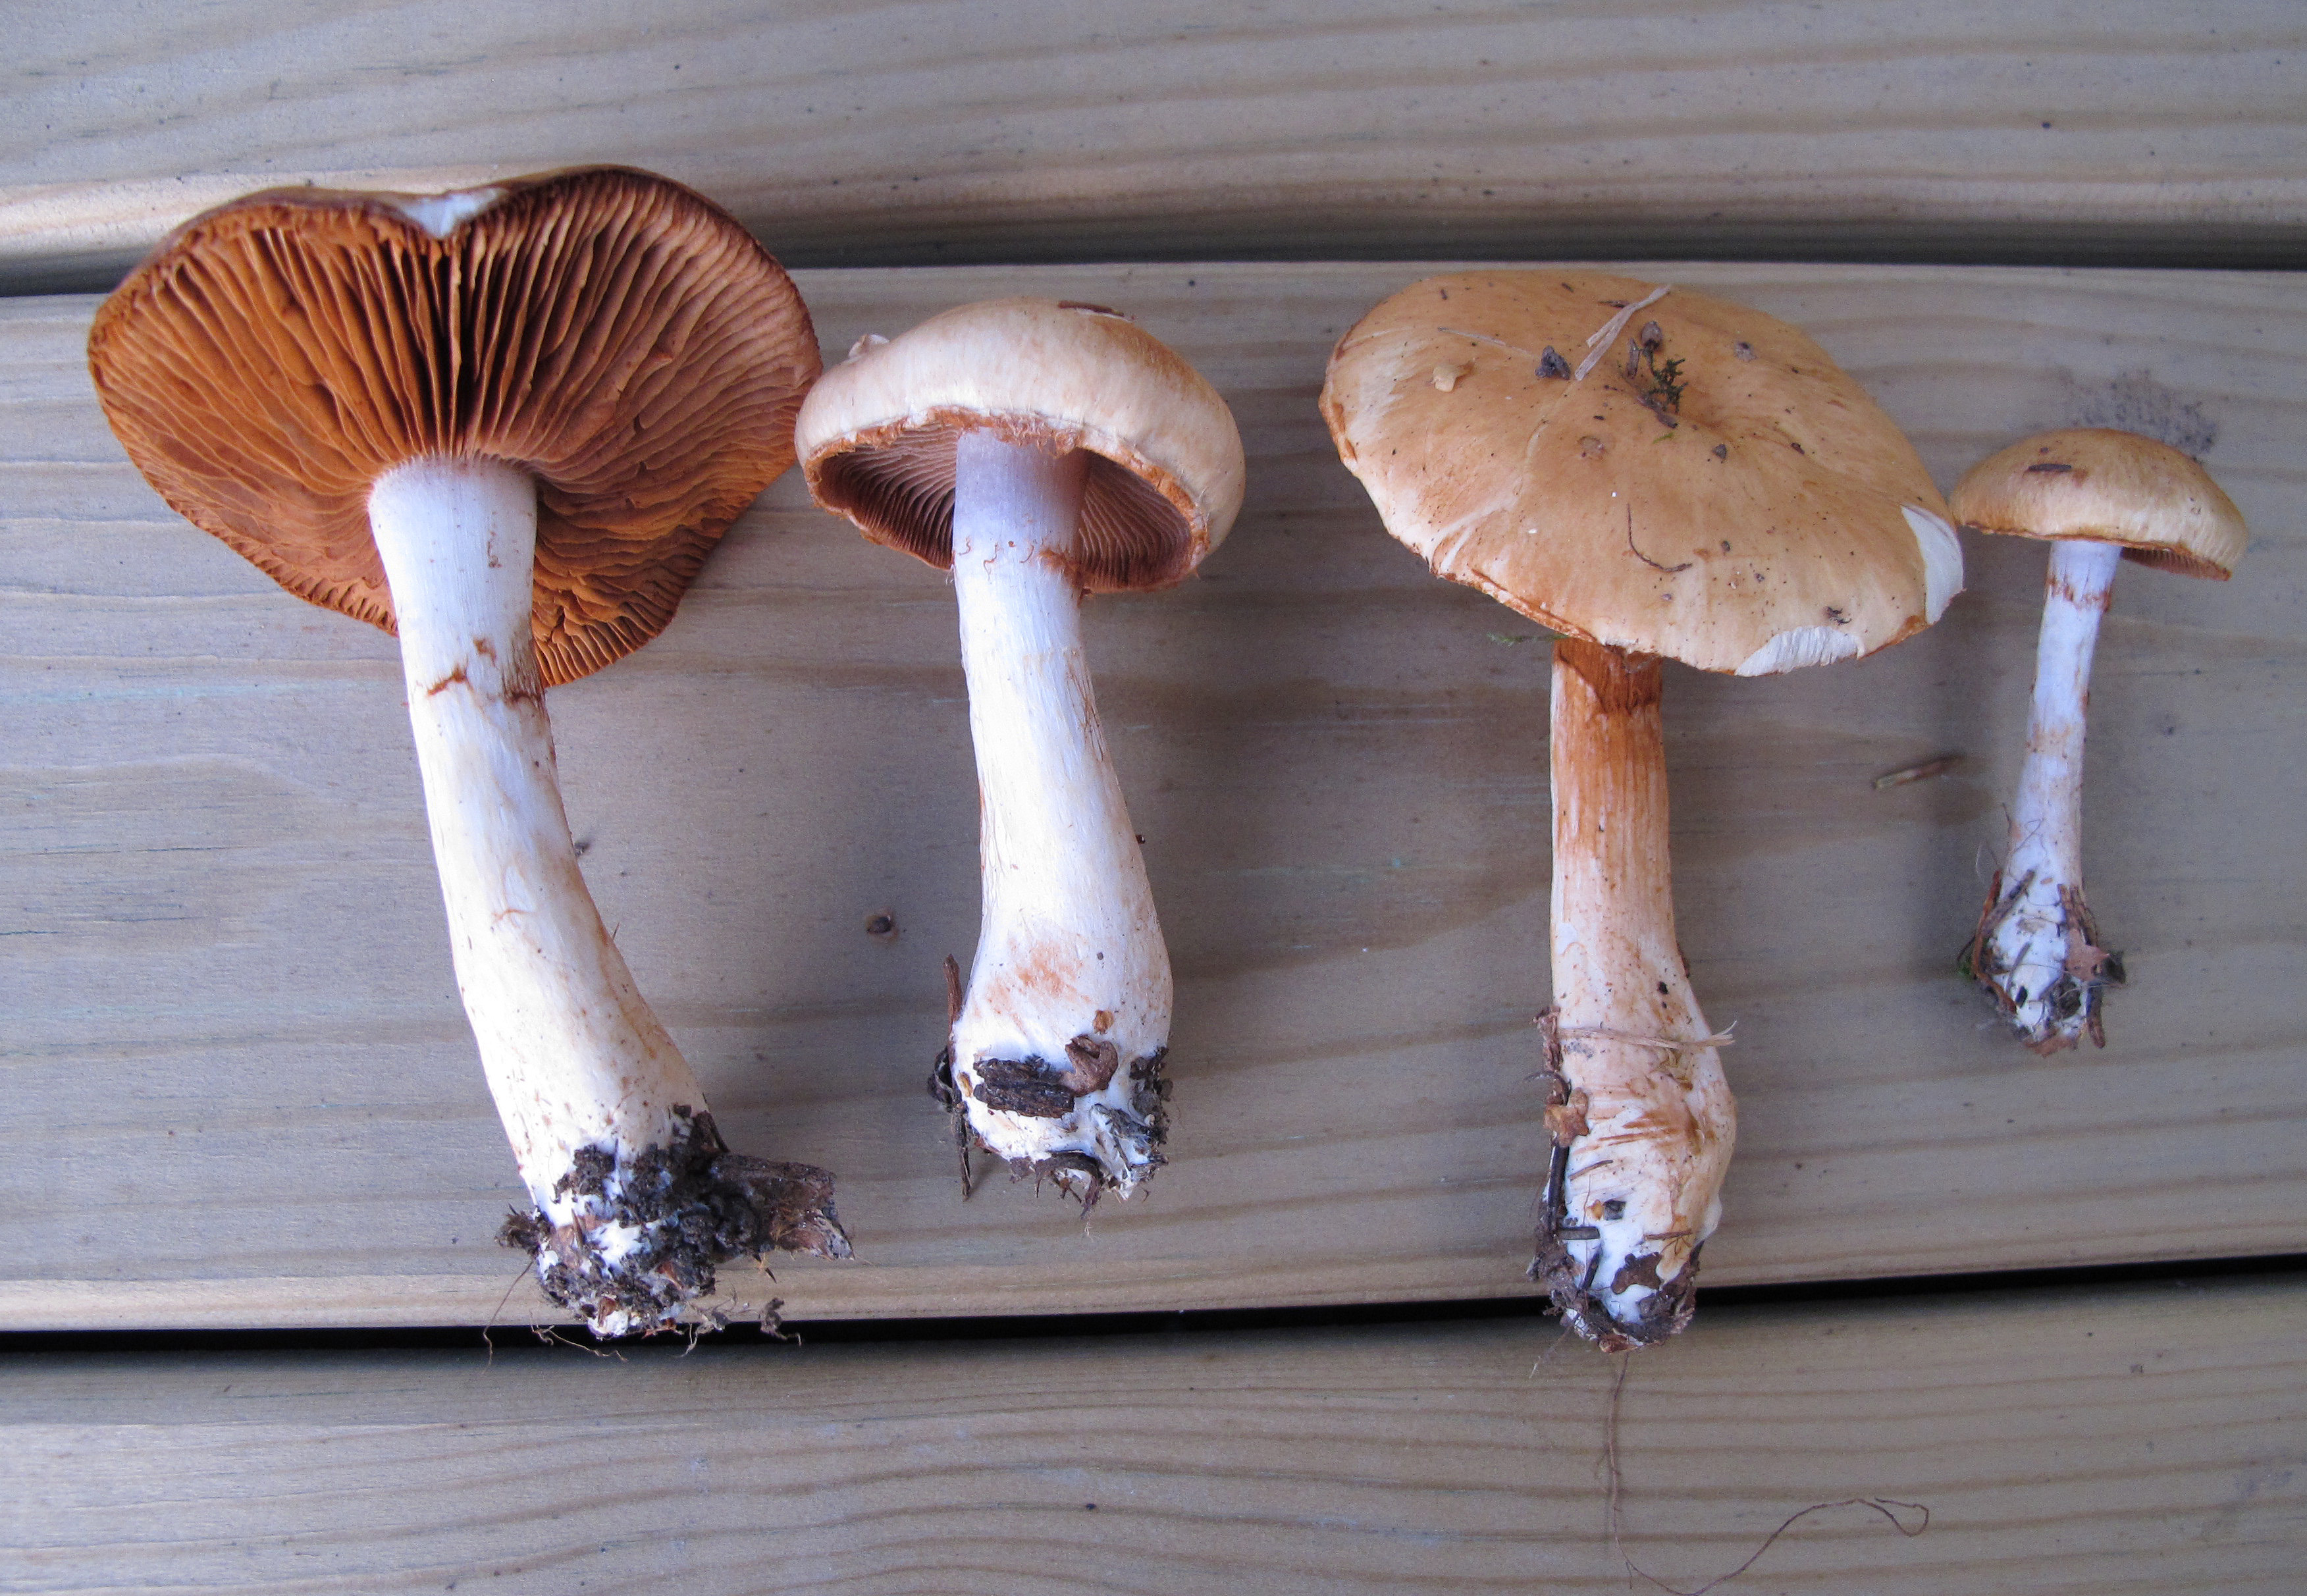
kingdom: Fungi
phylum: Basidiomycota
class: Agaricomycetes
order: Agaricales
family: Cortinariaceae
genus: Cortinarius
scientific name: Cortinarius urbicus
